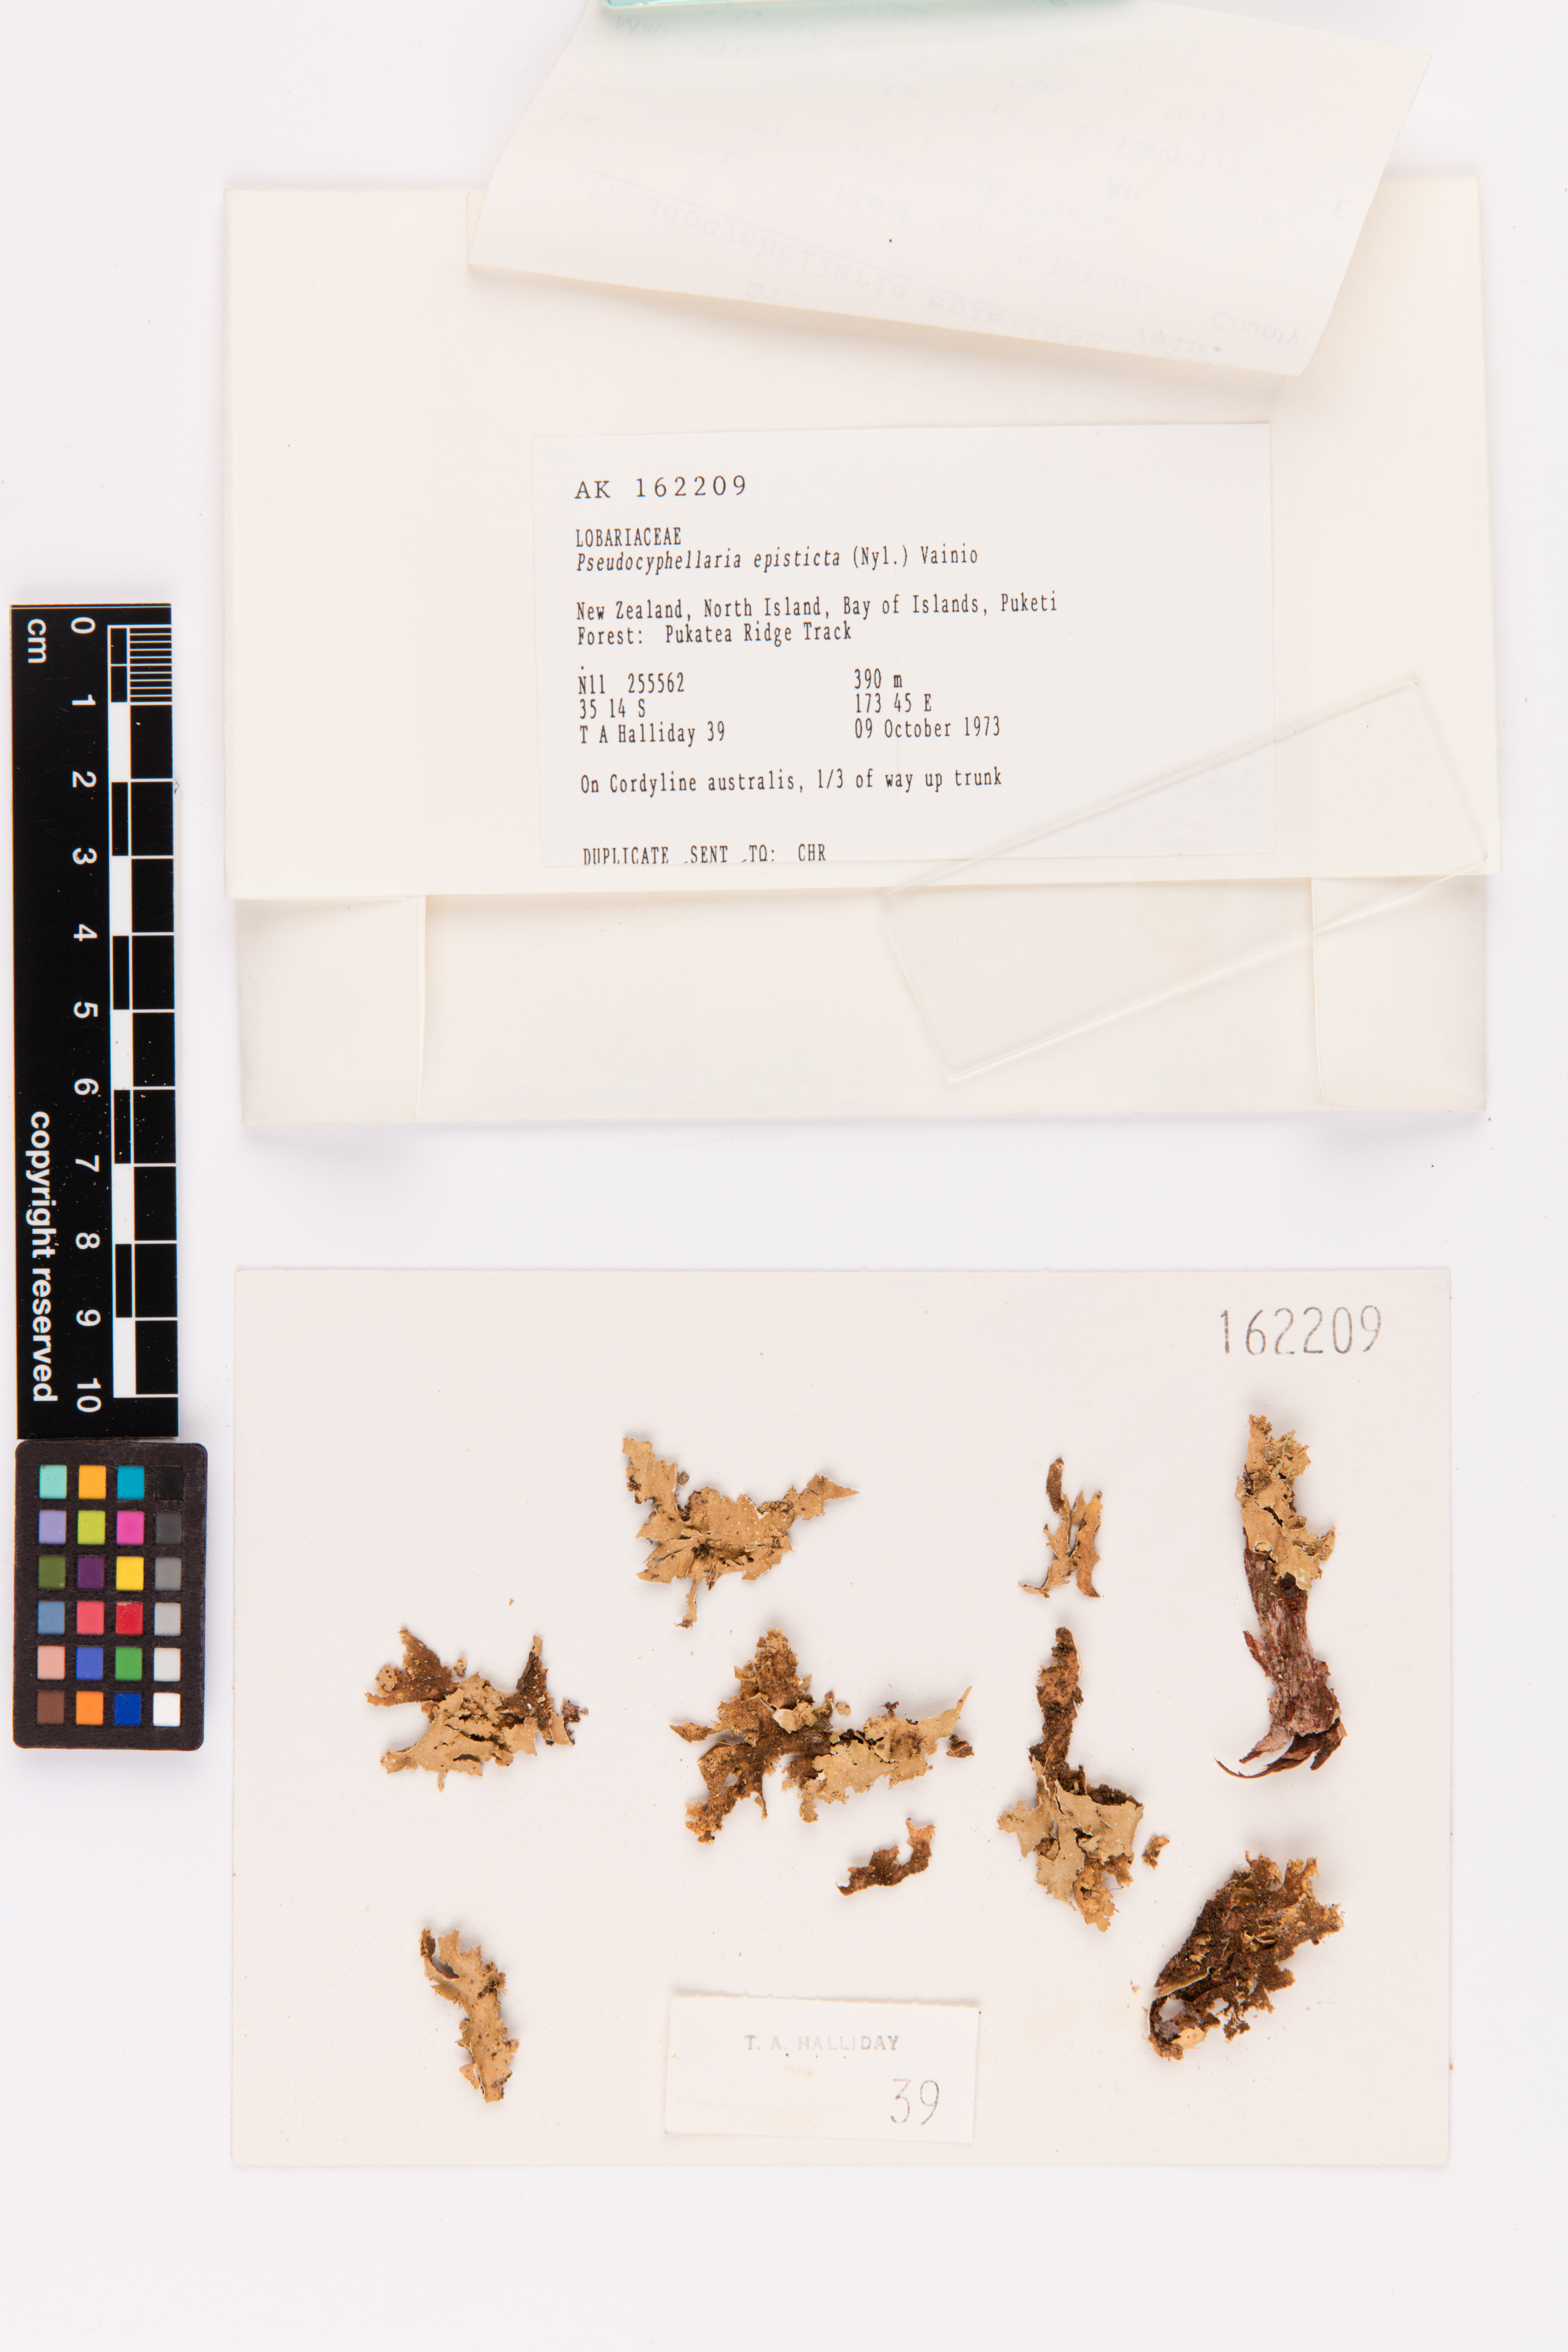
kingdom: Fungi
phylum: Ascomycota
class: Lecanoromycetes
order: Peltigerales
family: Lobariaceae
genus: Pseudocyphellaria
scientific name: Pseudocyphellaria episticta
